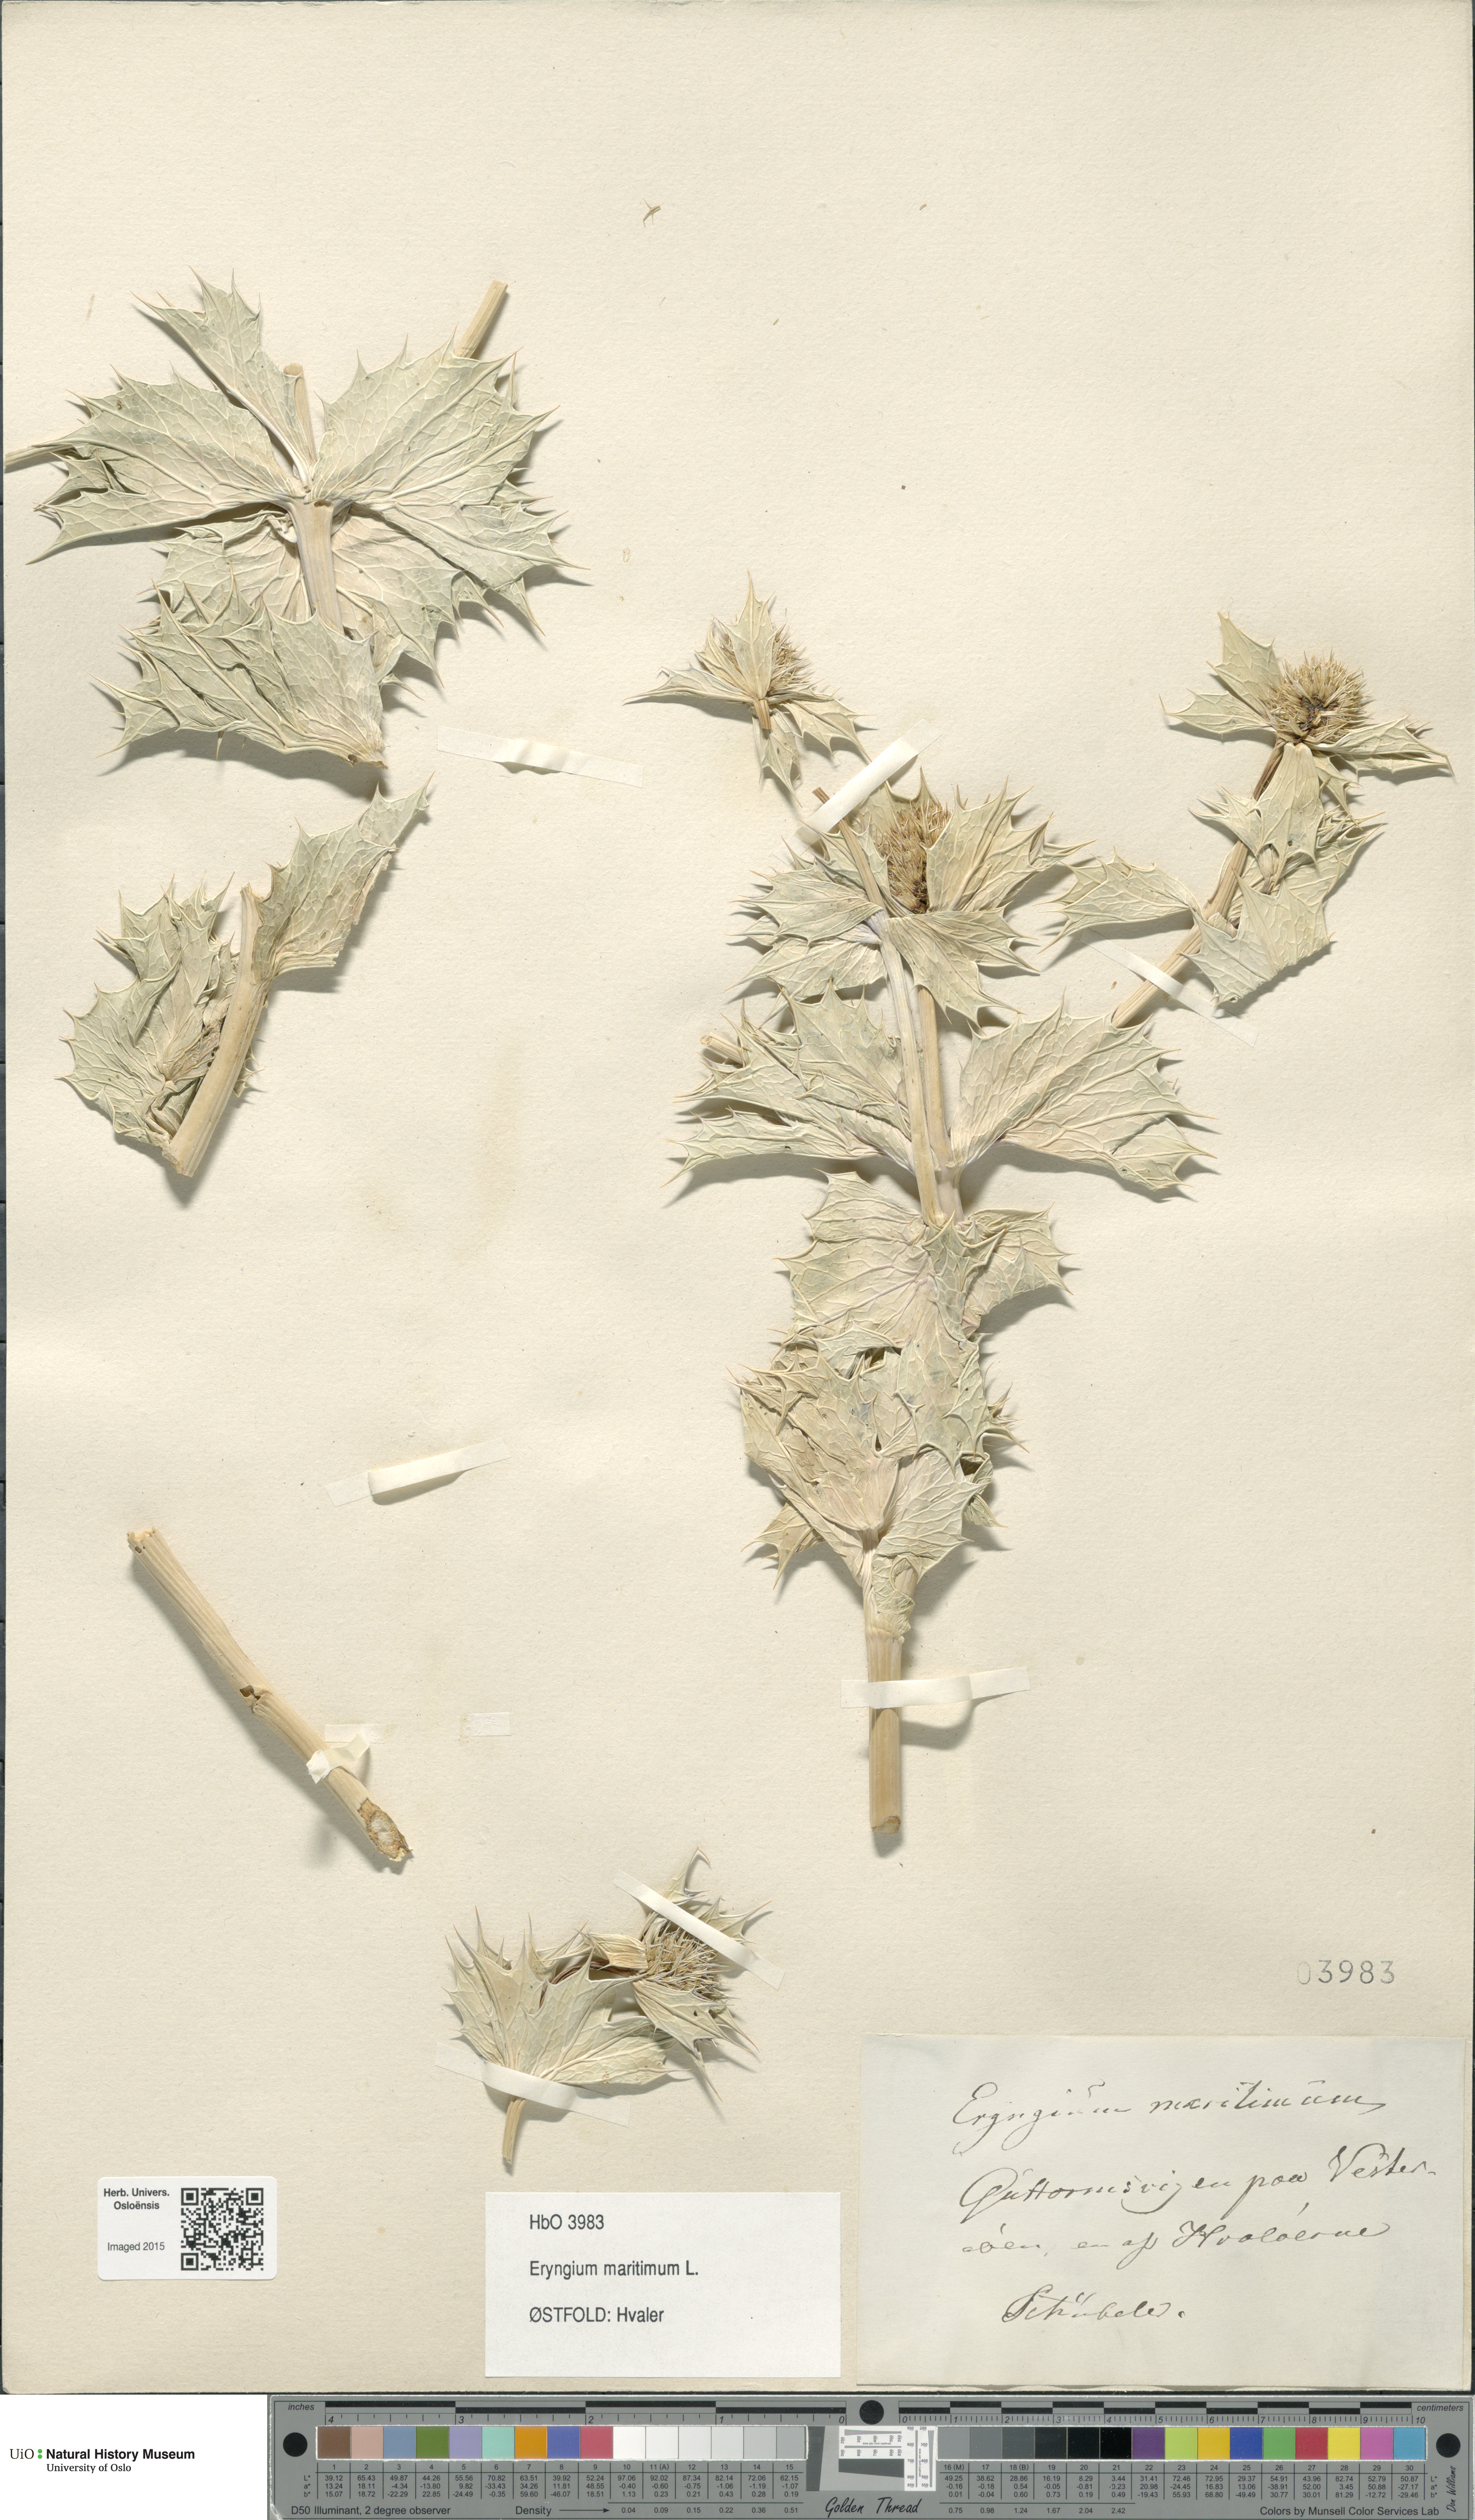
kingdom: Plantae
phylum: Tracheophyta
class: Magnoliopsida
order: Apiales
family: Apiaceae
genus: Eryngium
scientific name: Eryngium maritimum
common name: Sea-holly
